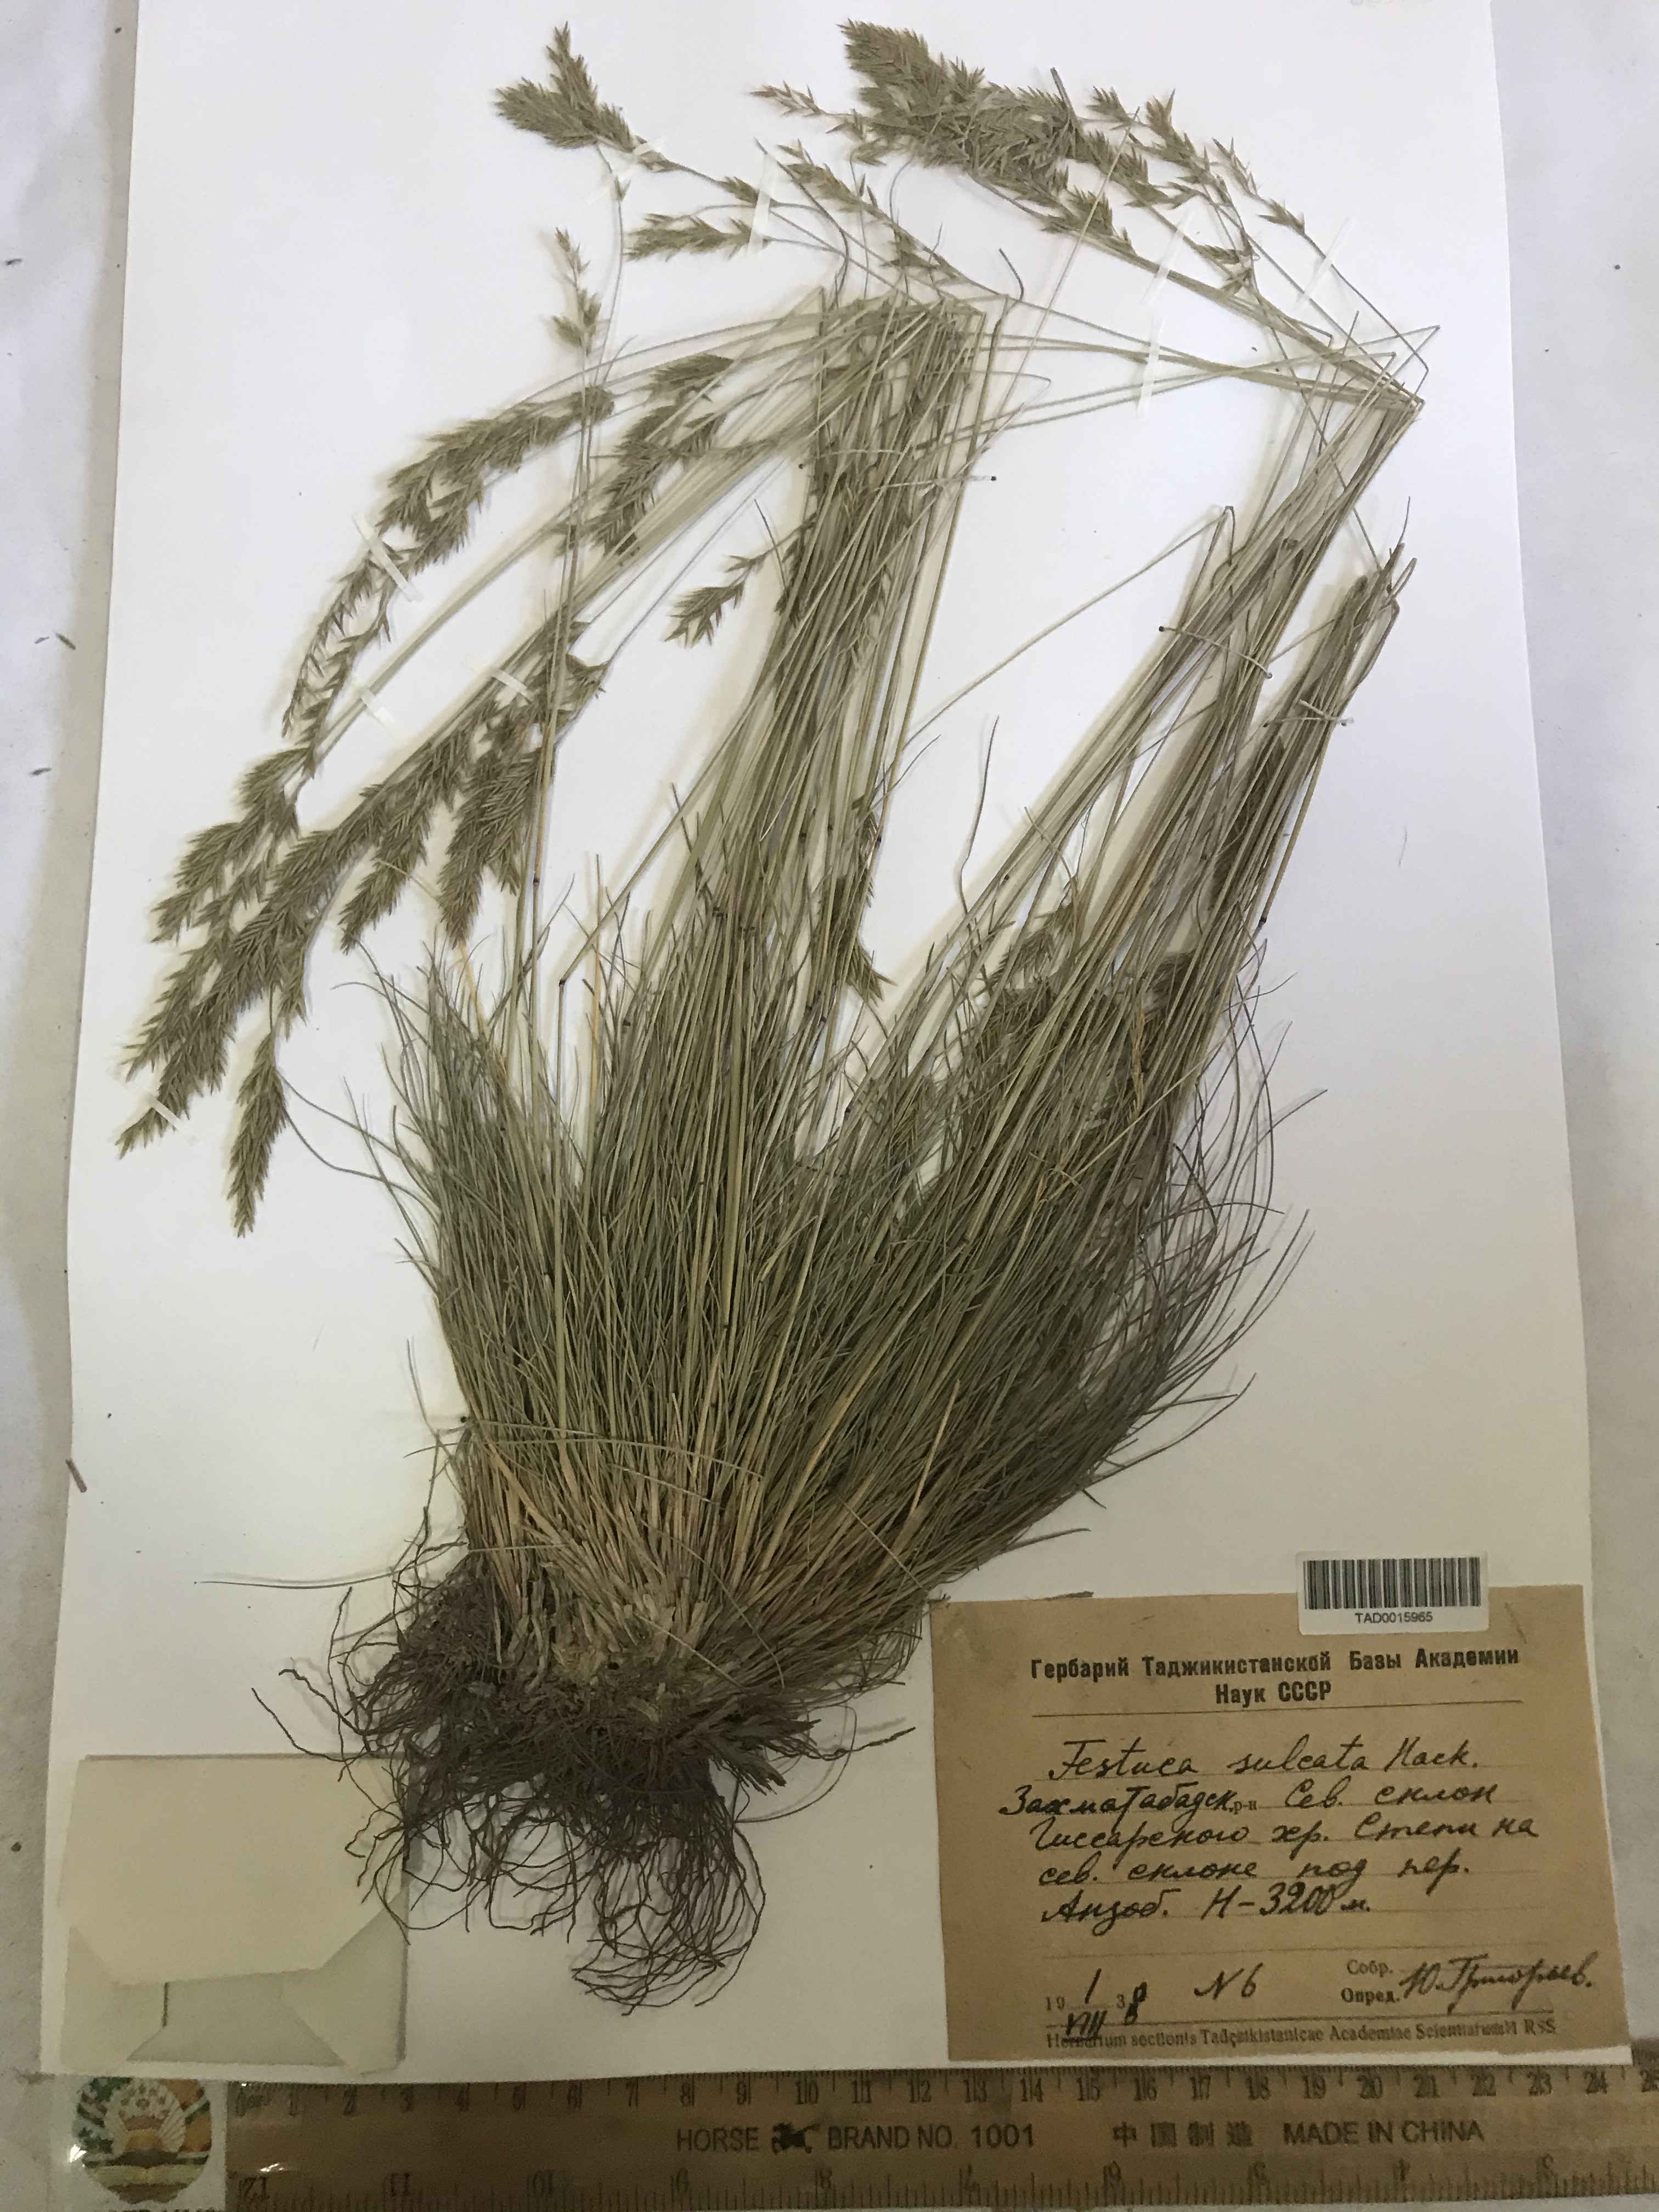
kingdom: Plantae
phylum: Tracheophyta
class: Liliopsida
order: Poales
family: Poaceae
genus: Festuca
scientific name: Festuca sulcata
